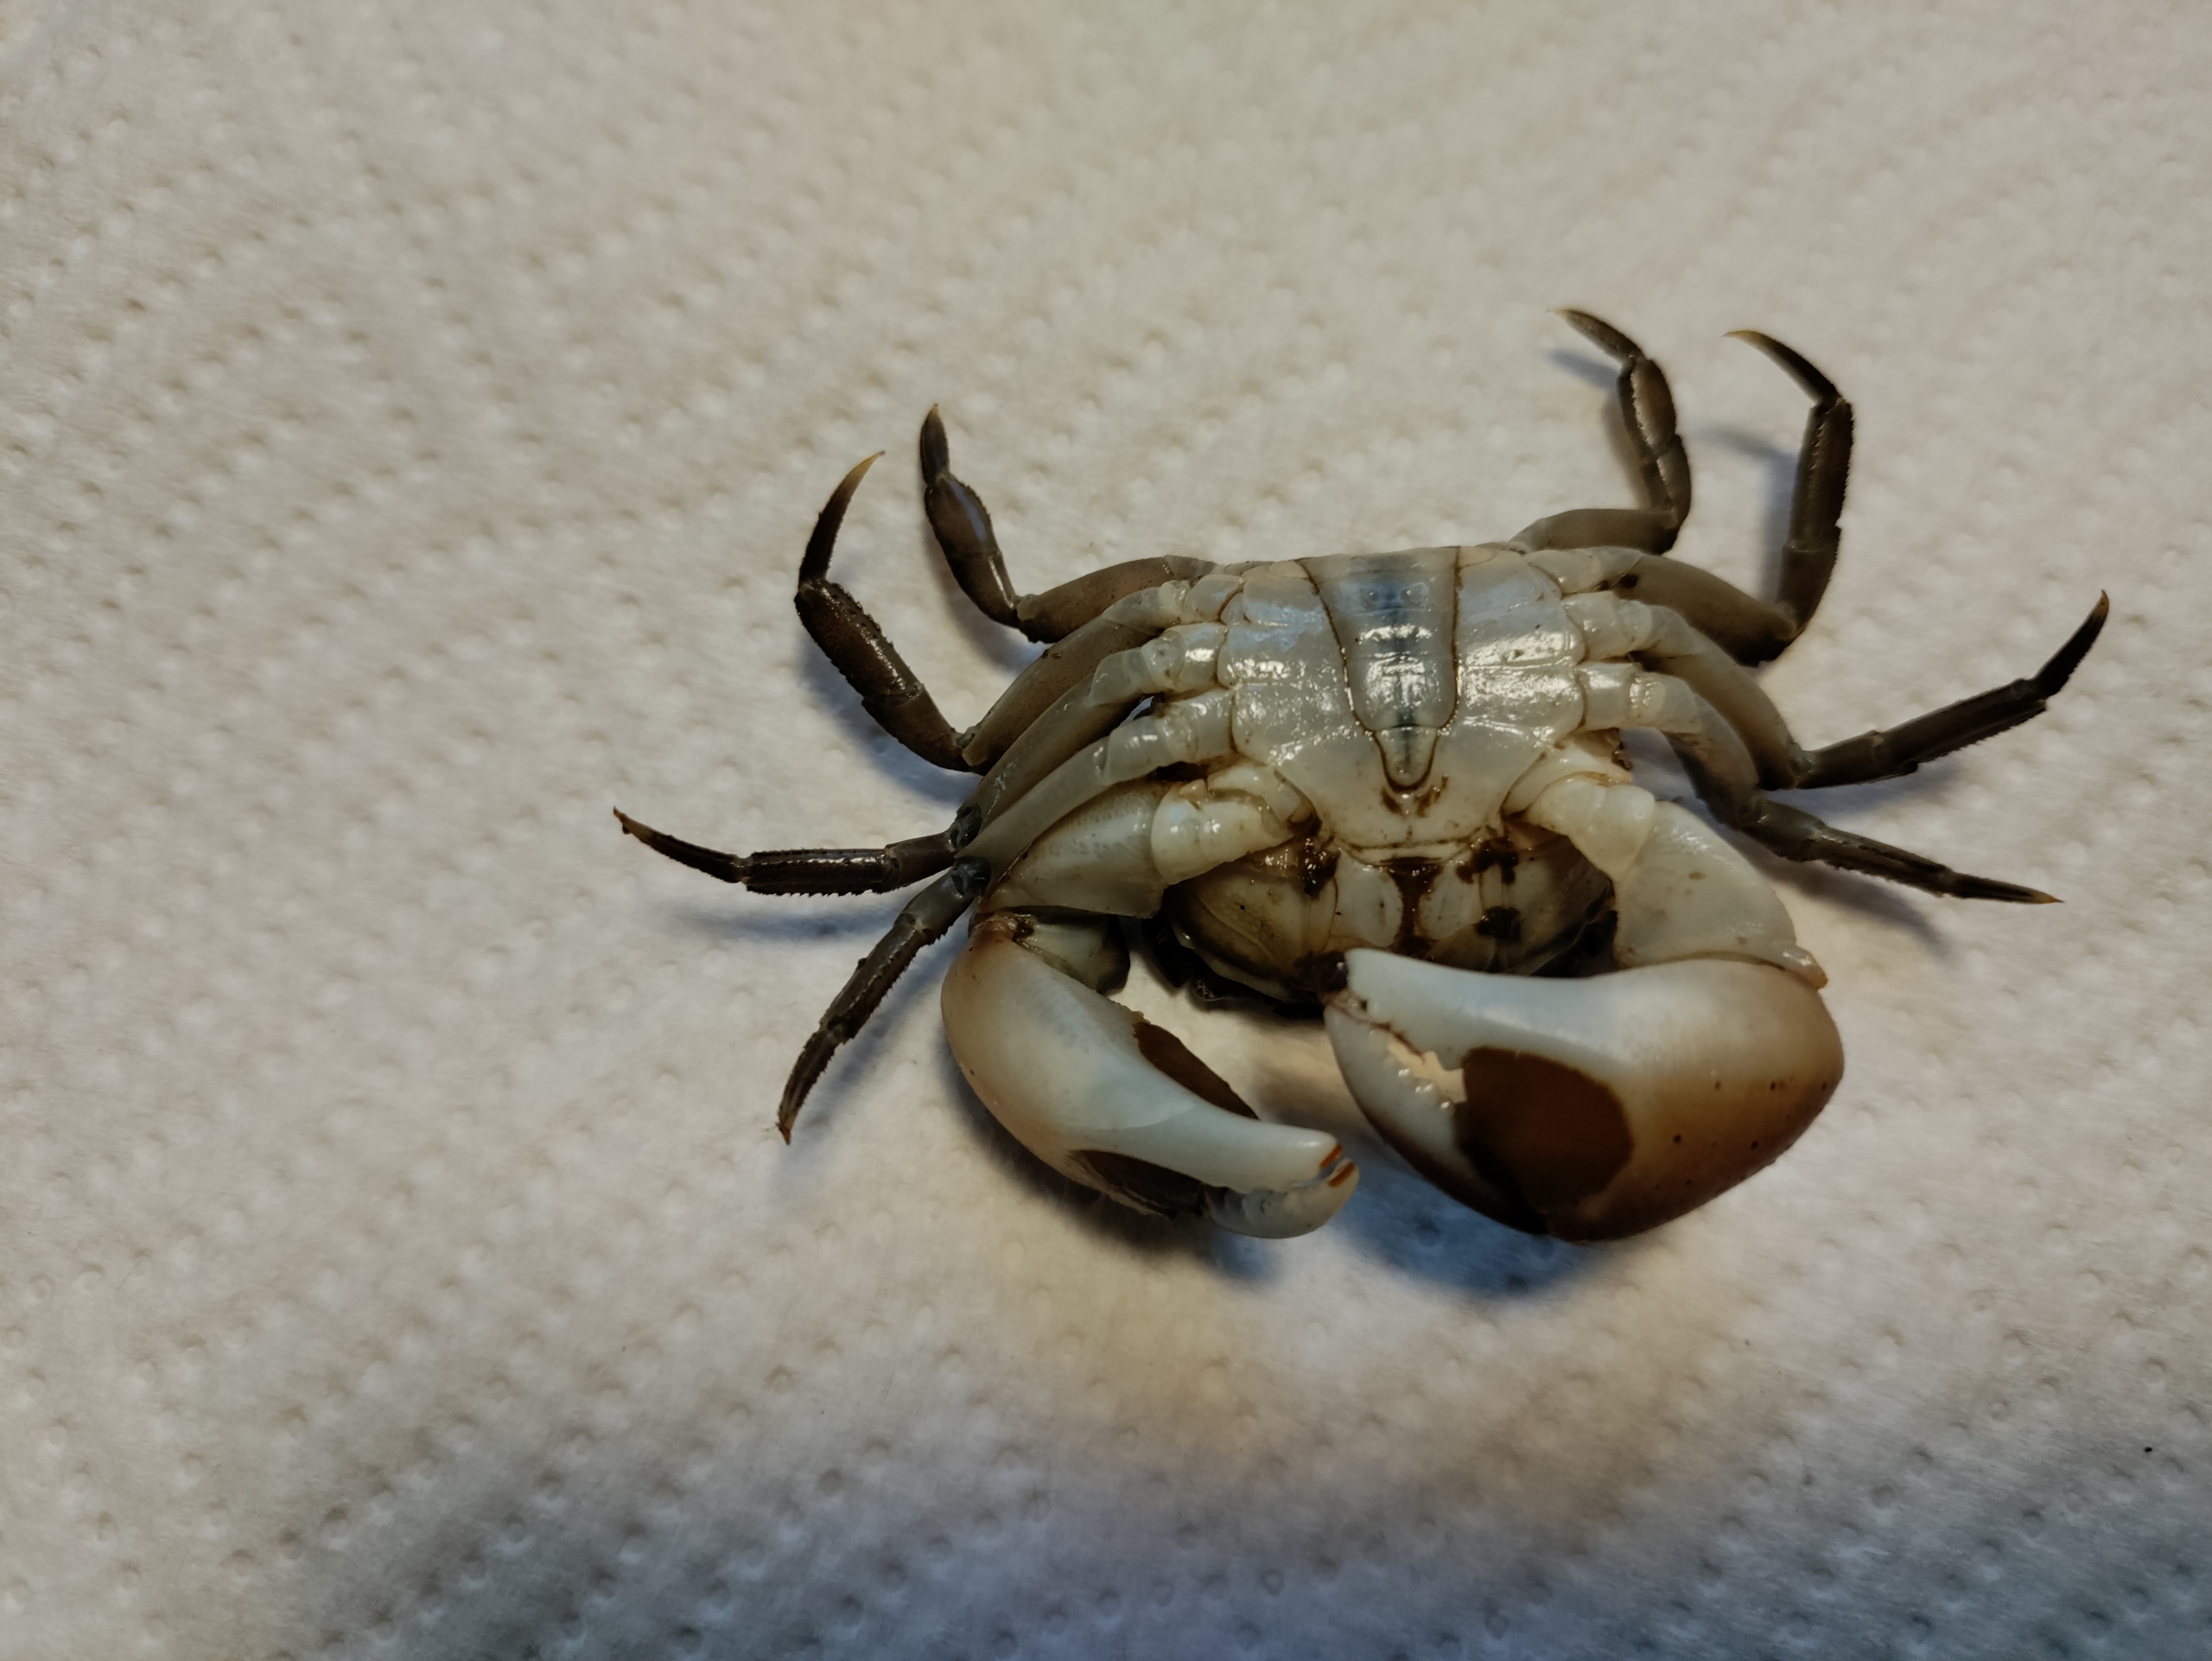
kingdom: Animalia
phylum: Arthropoda
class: Malacostraca
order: Decapoda
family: Varunidae
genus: Hemigrapsus
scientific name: Hemigrapsus takanoi
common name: Pensel-klippekrabbe
